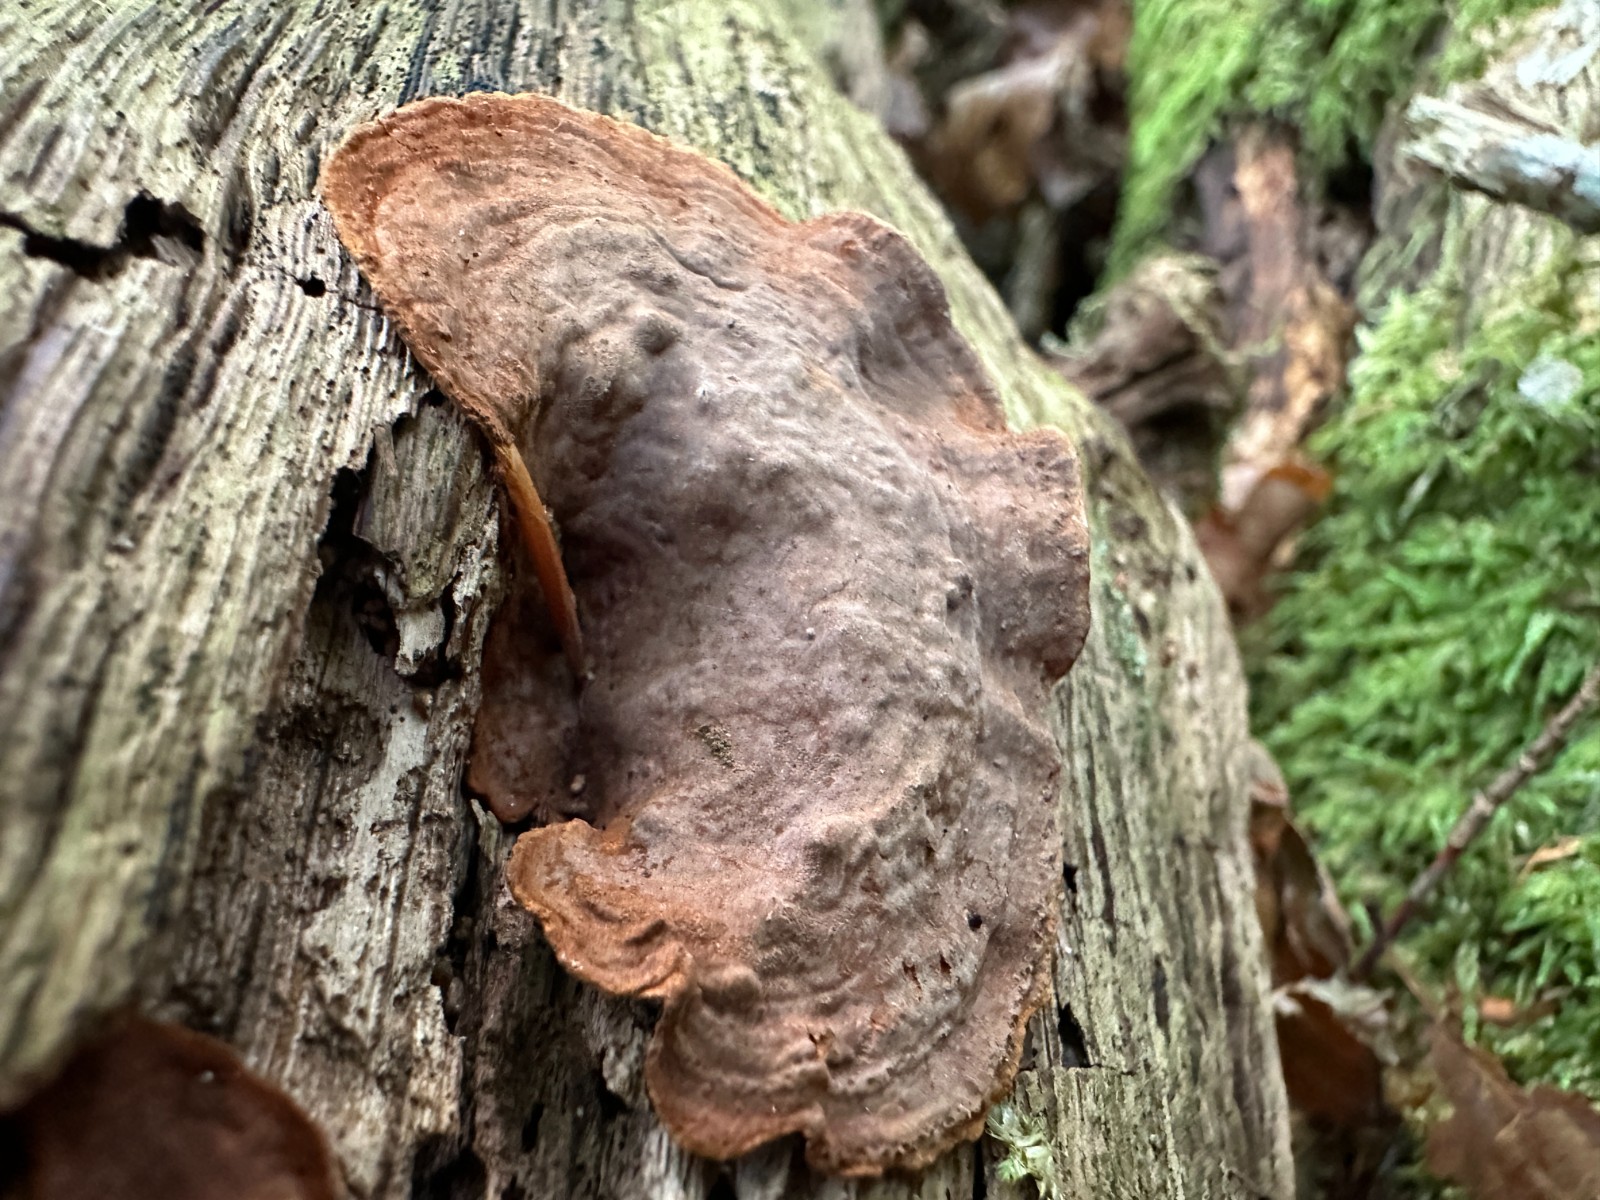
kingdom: Fungi
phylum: Basidiomycota
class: Agaricomycetes
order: Hymenochaetales
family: Hymenochaetaceae
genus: Hymenochaete
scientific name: Hymenochaete rubiginosa
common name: stiv ruslædersvamp
